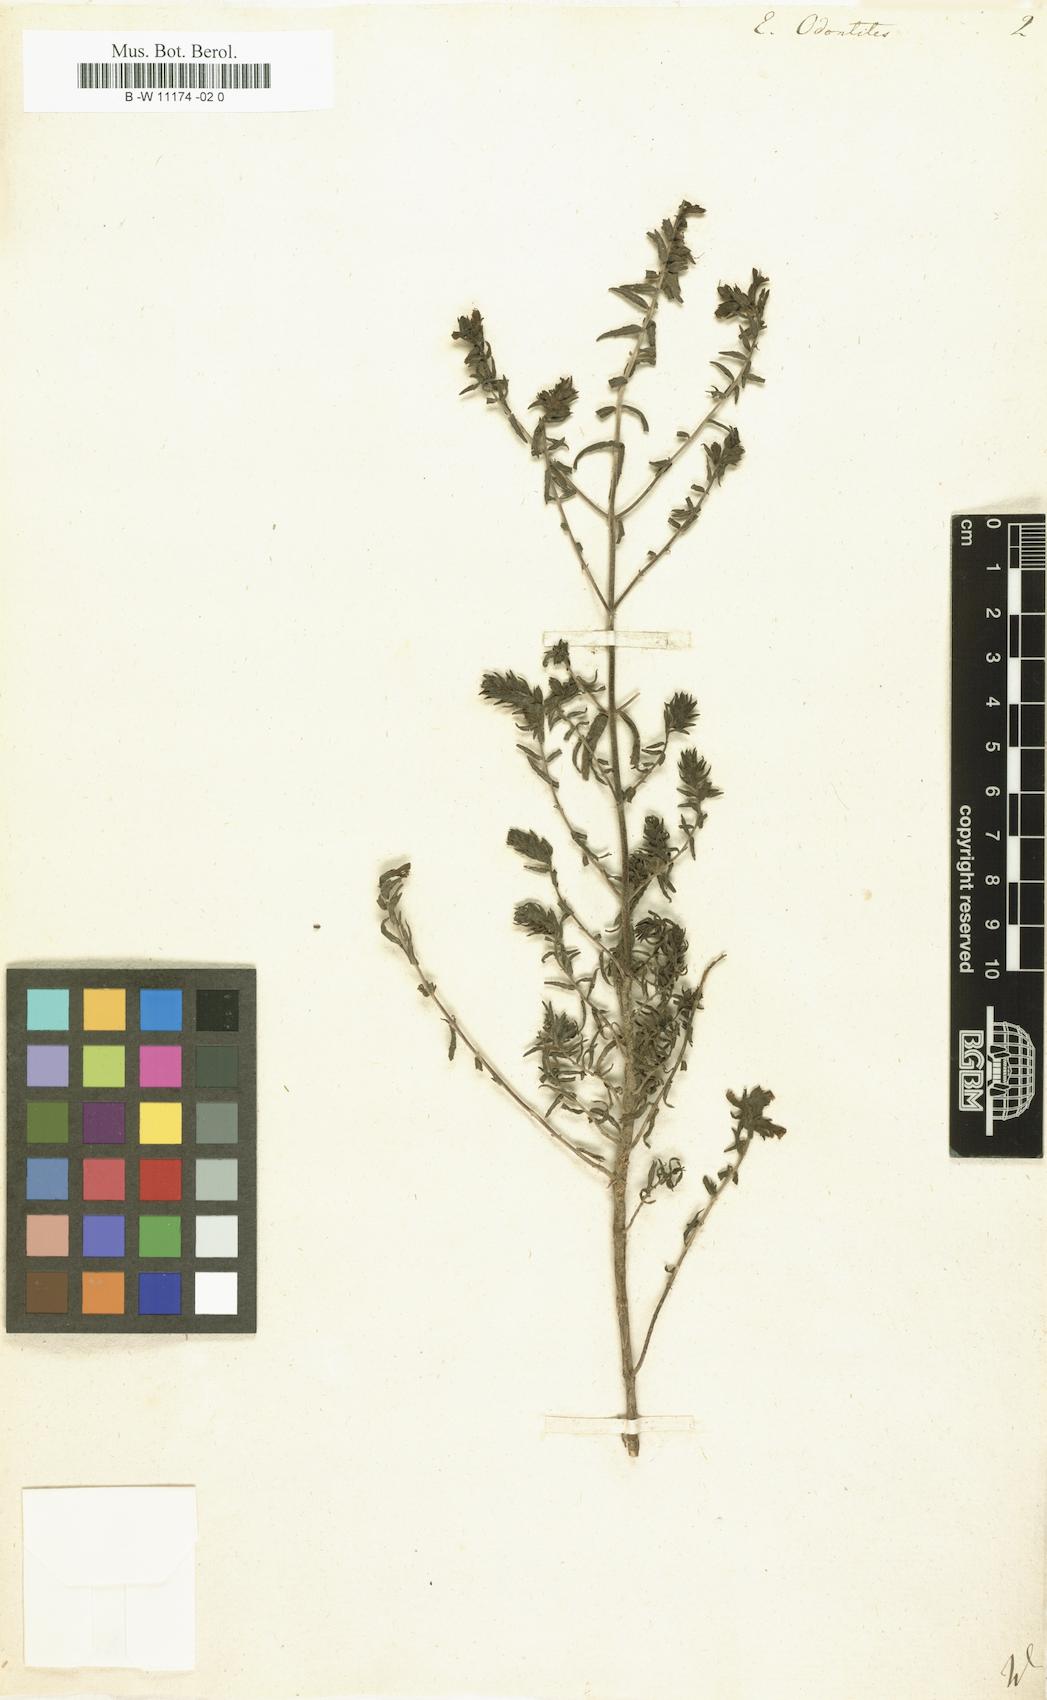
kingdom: Plantae
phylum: Tracheophyta
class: Magnoliopsida
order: Lamiales
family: Orobanchaceae
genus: Odontites
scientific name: Odontites vulgaris
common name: Broomrape
